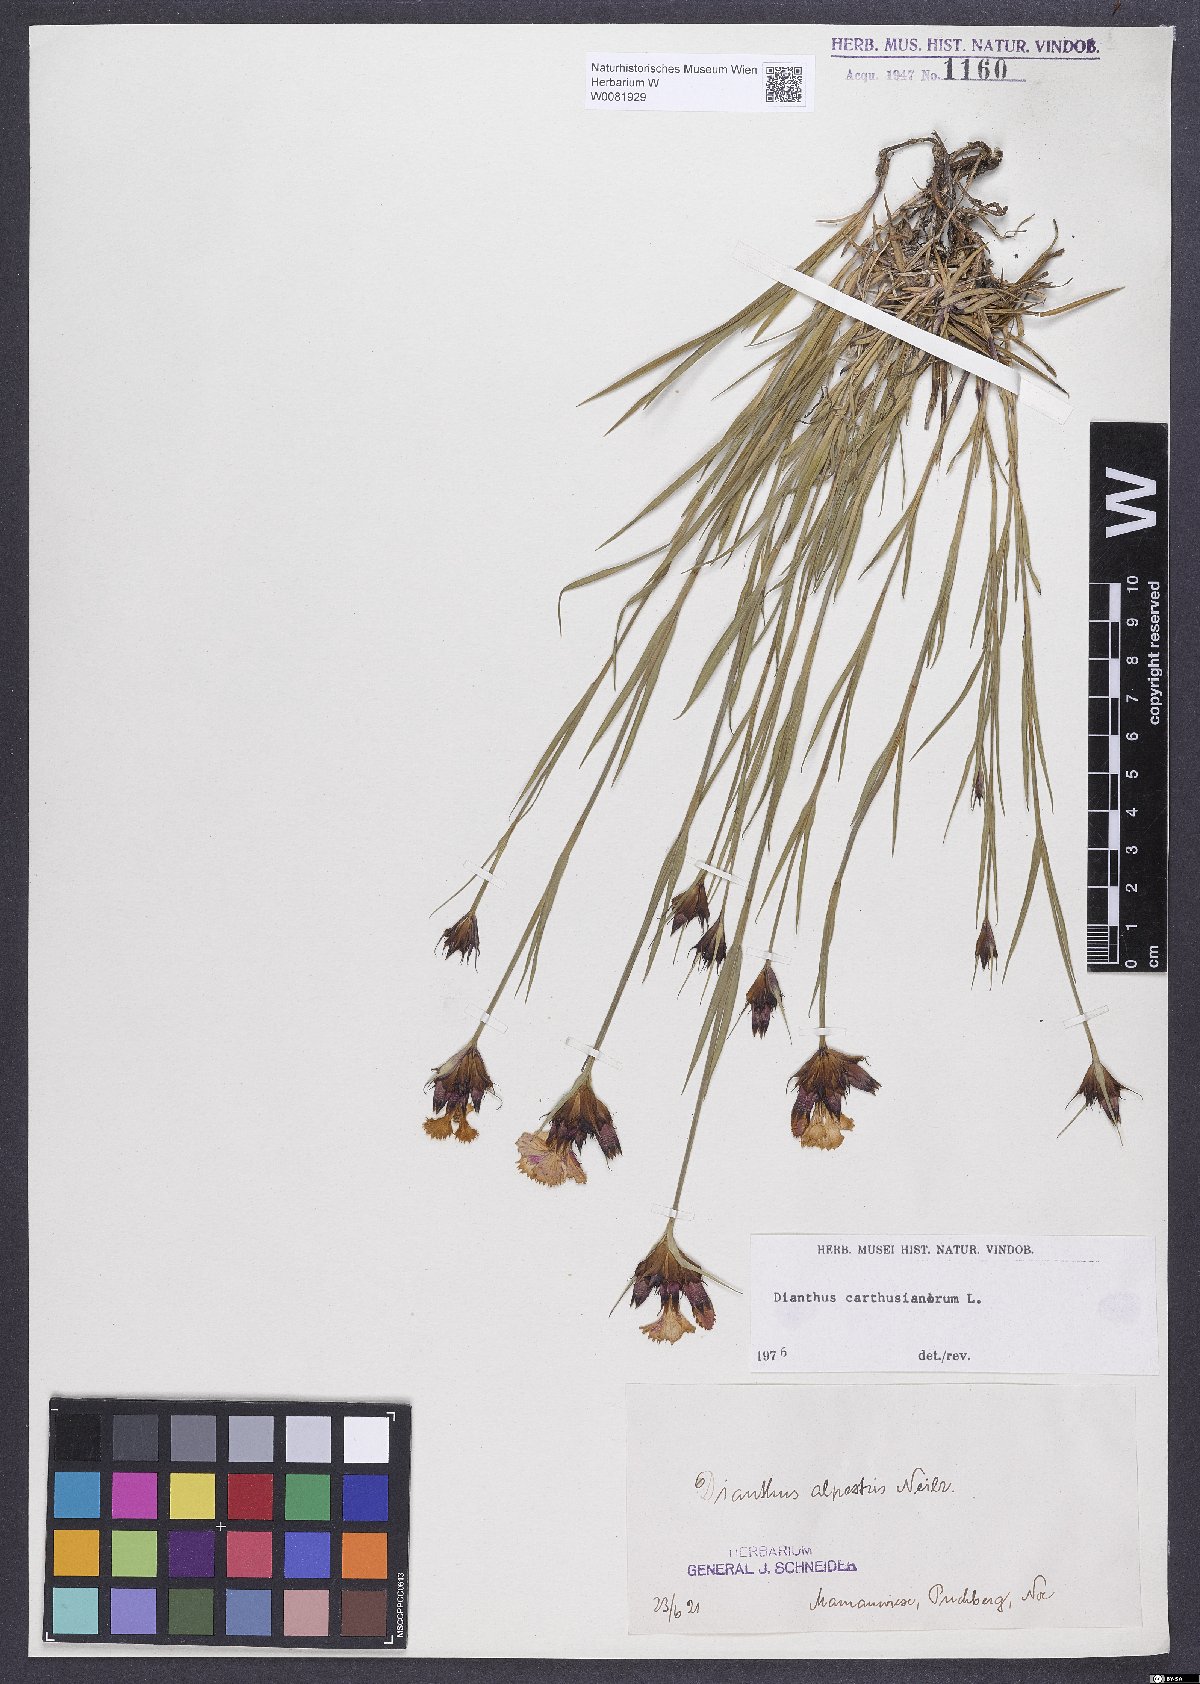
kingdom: Plantae
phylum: Tracheophyta
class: Magnoliopsida
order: Caryophyllales
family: Caryophyllaceae
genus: Dianthus
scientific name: Dianthus carthusianorum
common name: Carthusian pink
